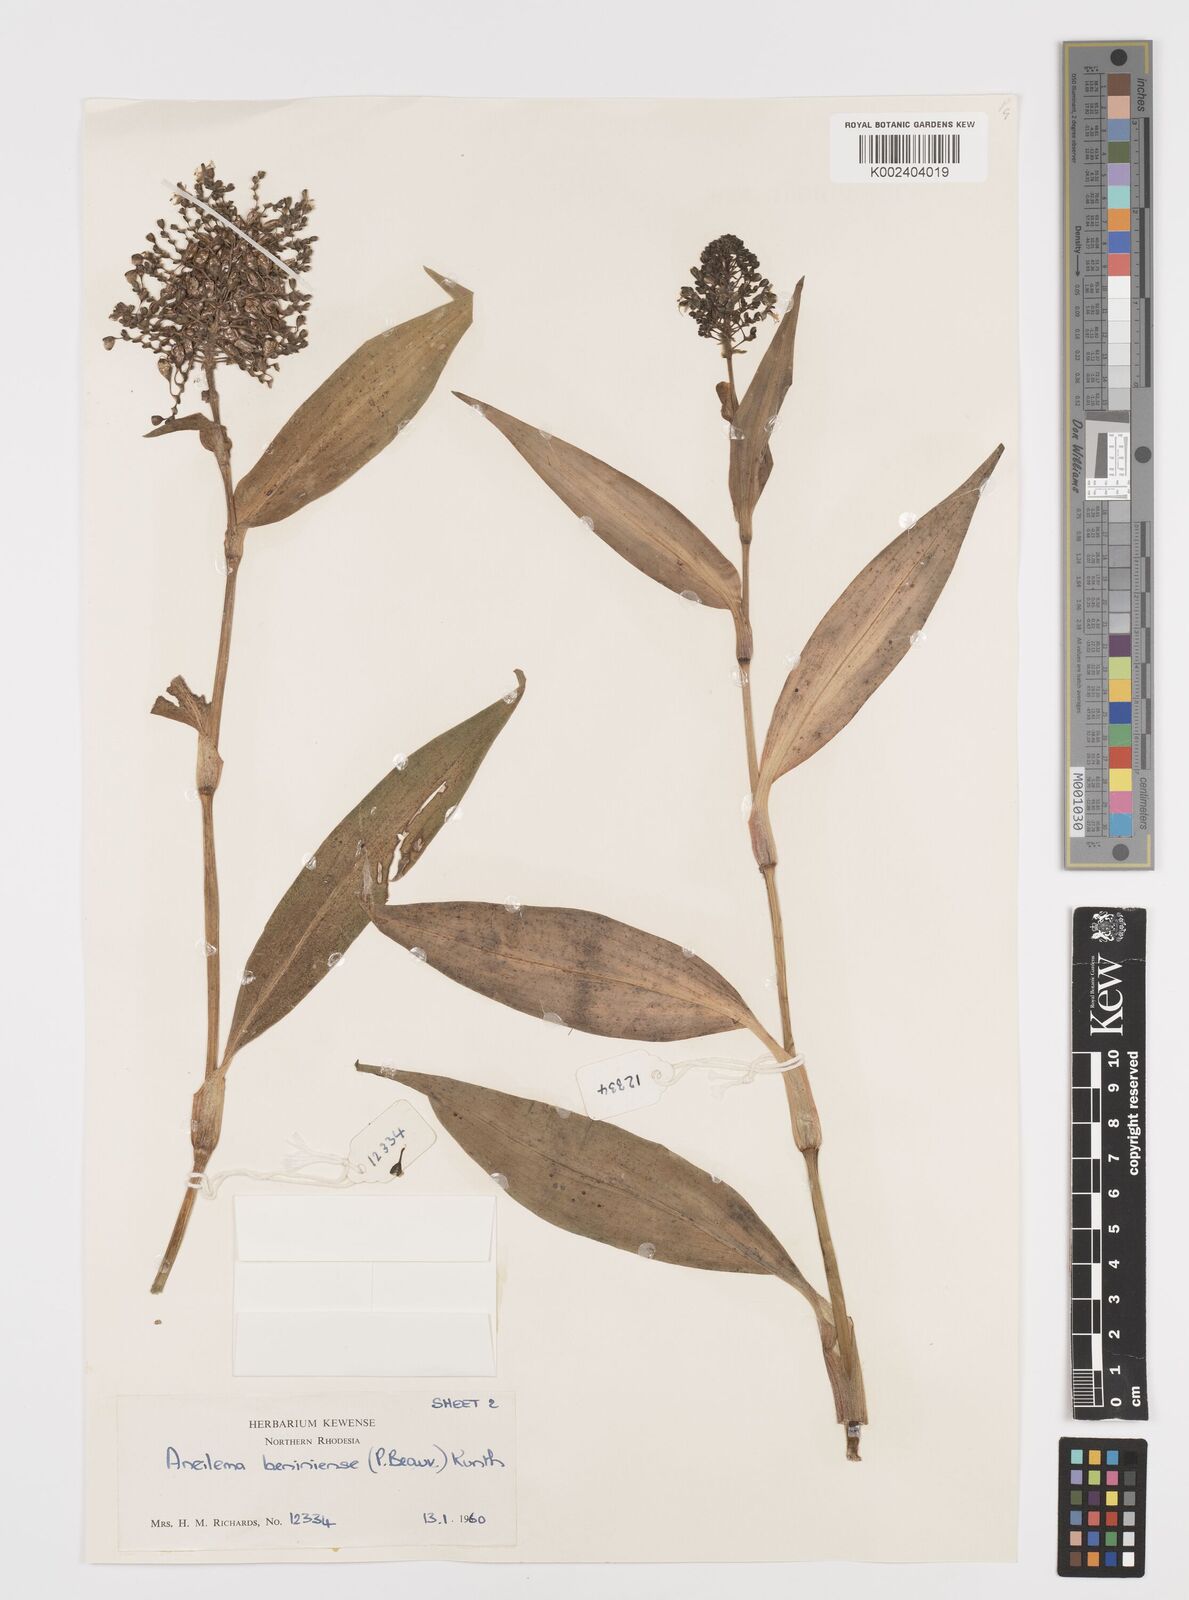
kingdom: Plantae
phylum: Tracheophyta
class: Liliopsida
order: Commelinales
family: Commelinaceae
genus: Aneilema
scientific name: Aneilema beniniense
